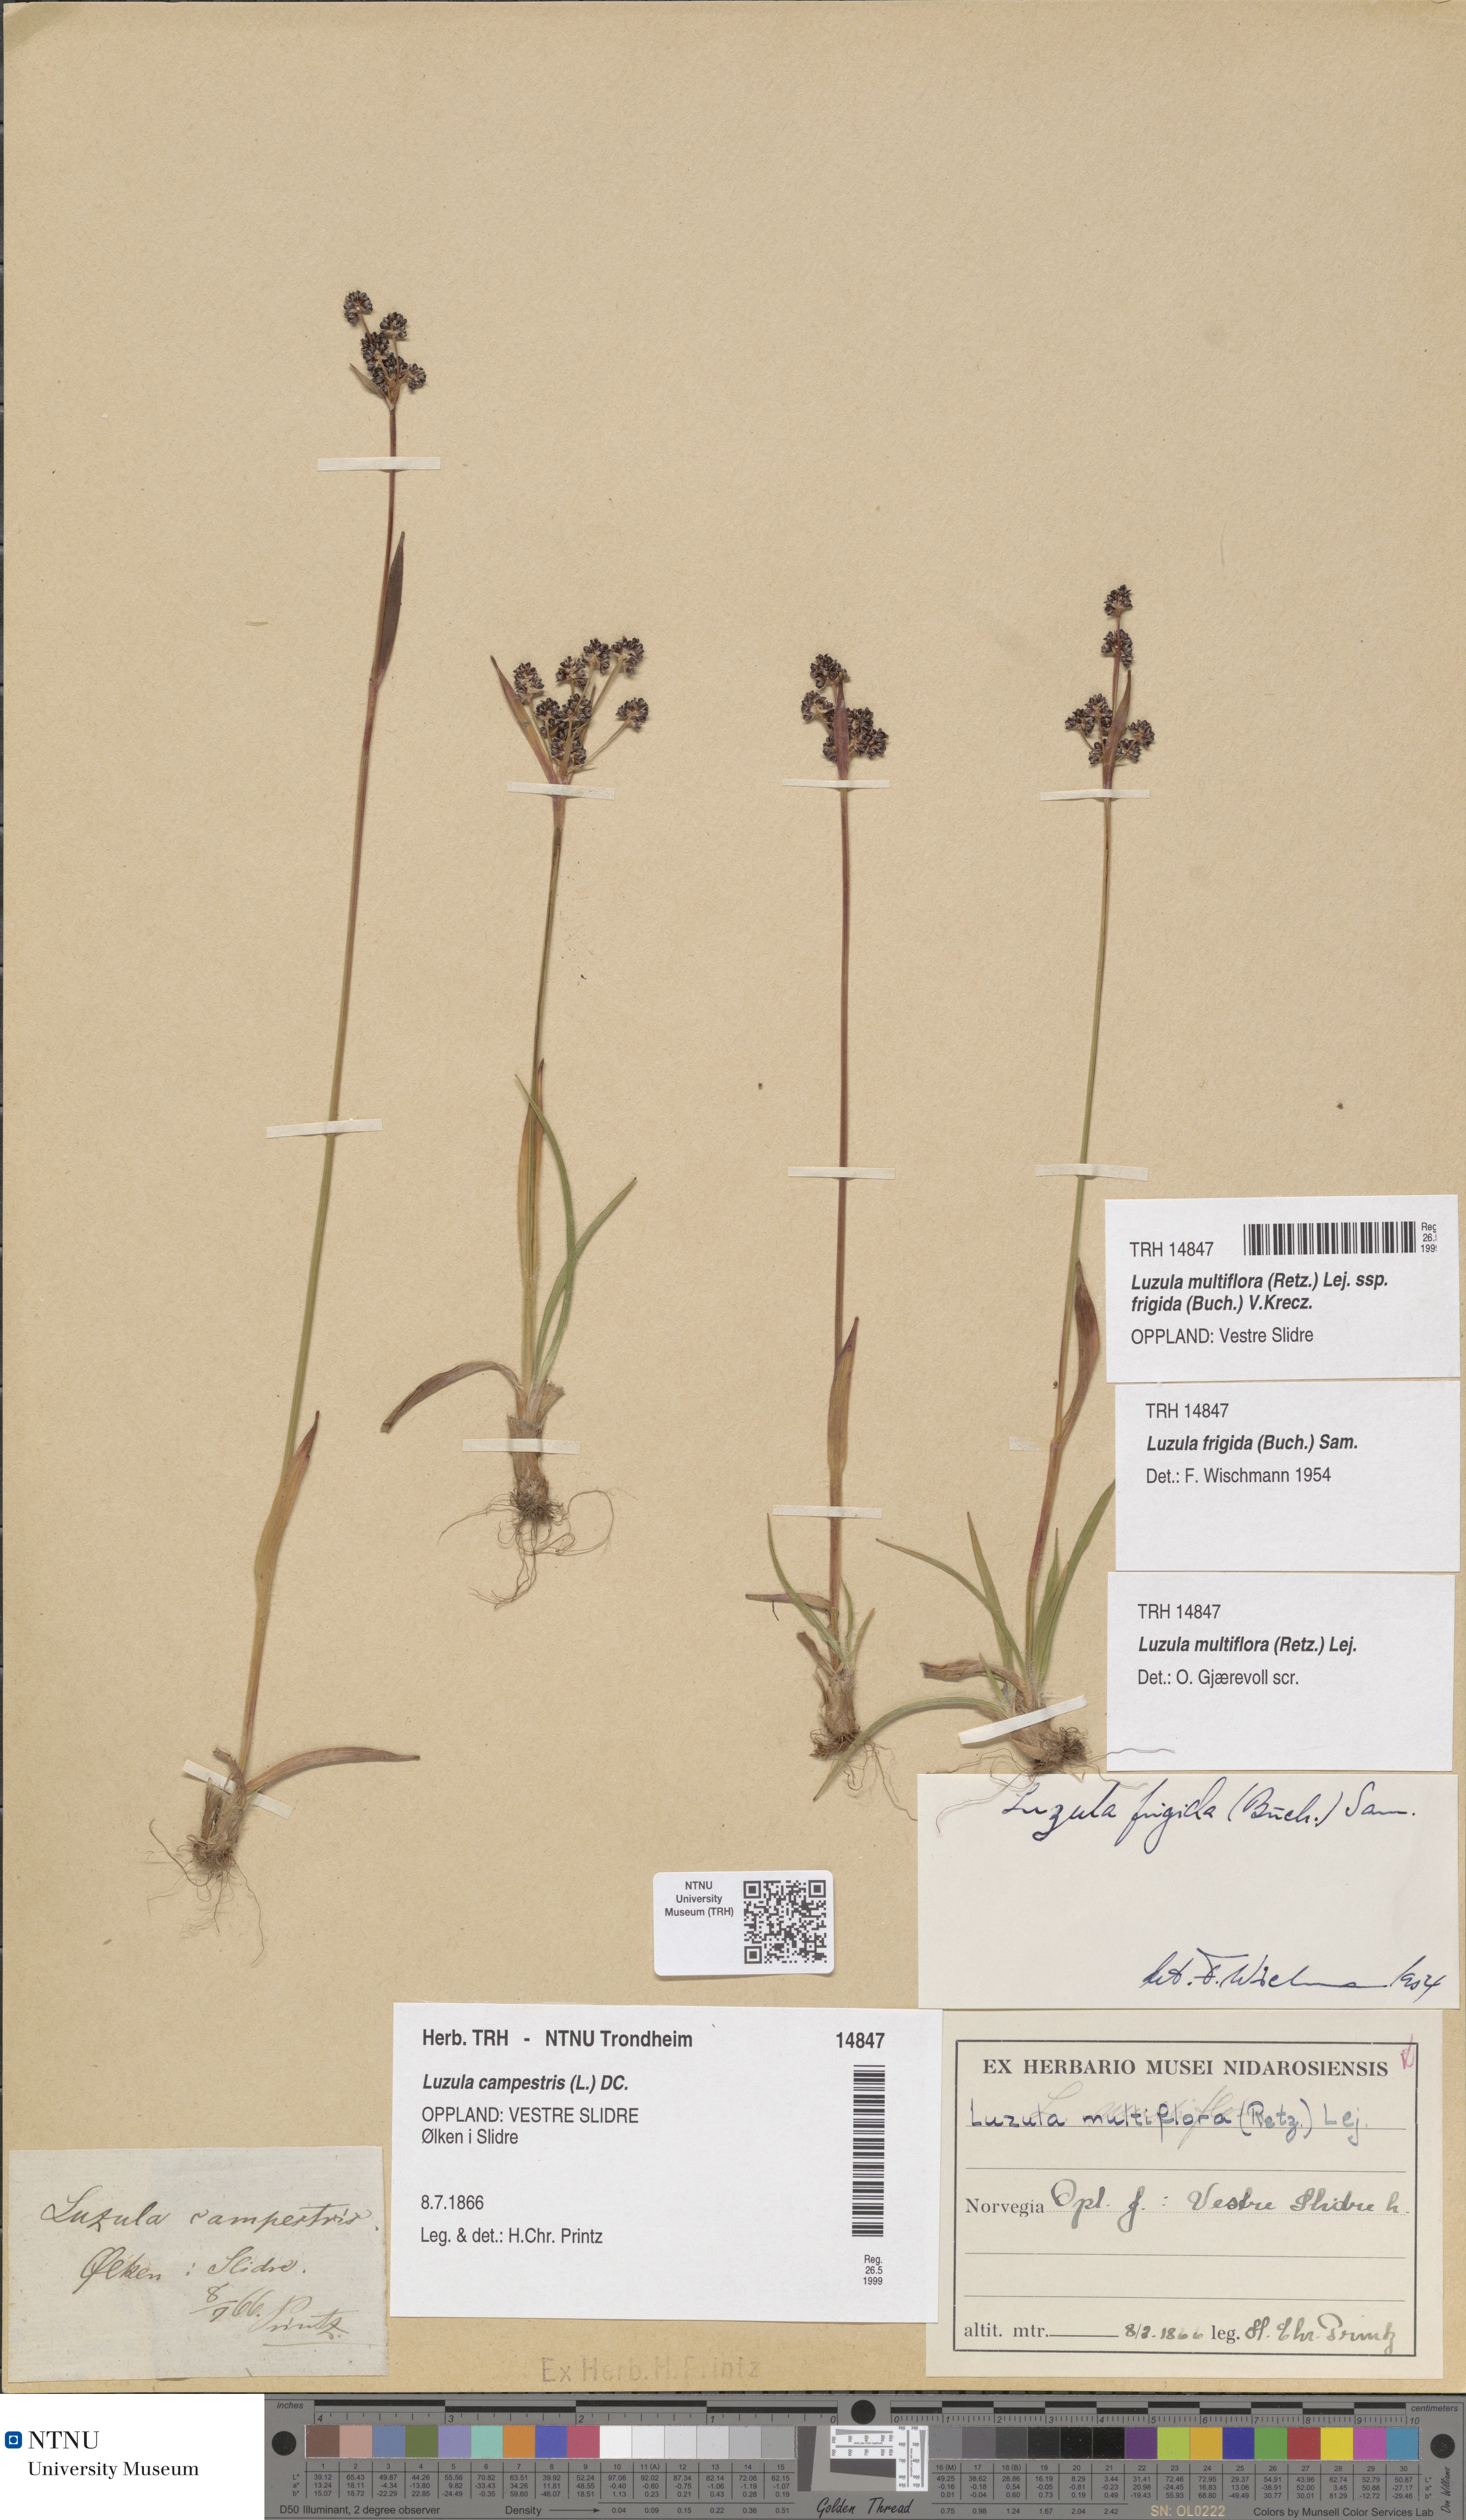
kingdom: Plantae
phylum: Tracheophyta
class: Liliopsida
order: Poales
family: Juncaceae
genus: Luzula
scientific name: Luzula multiflora
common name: Heath wood-rush
